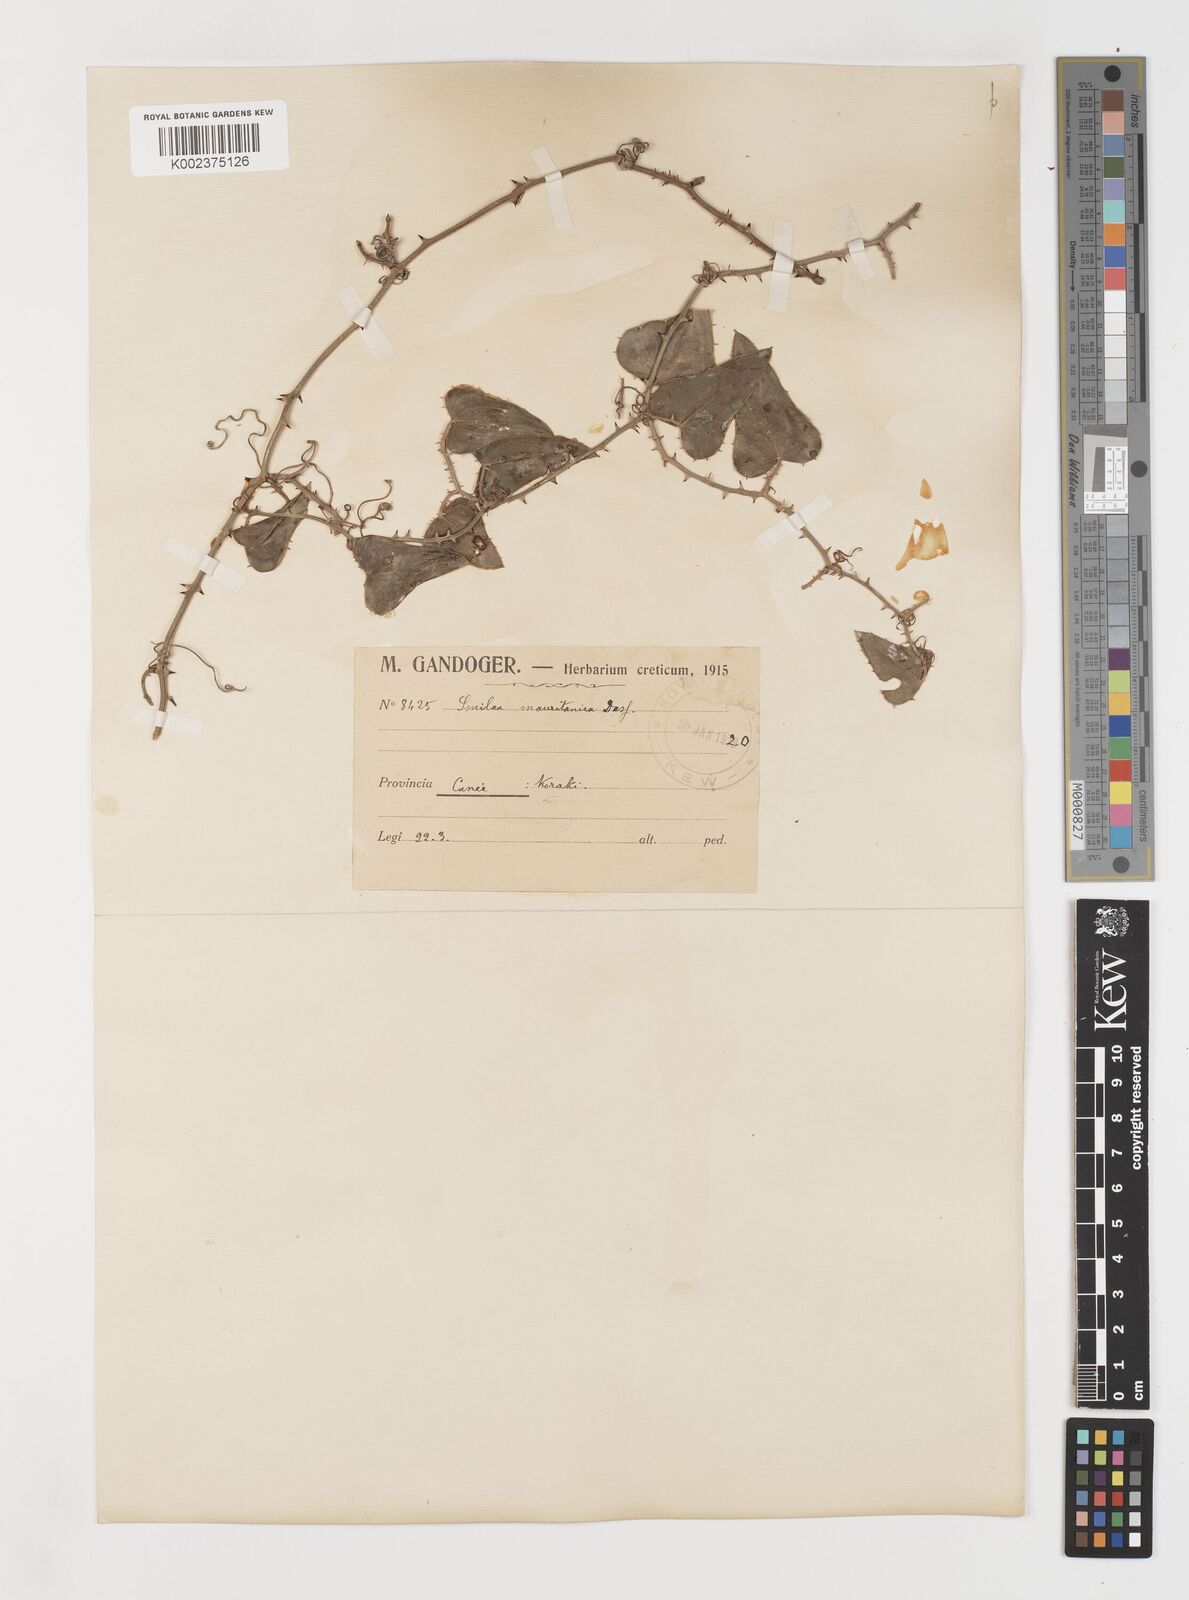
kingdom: Plantae
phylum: Tracheophyta
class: Liliopsida
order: Liliales
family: Smilacaceae
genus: Smilax
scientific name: Smilax aspera
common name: Common smilax
